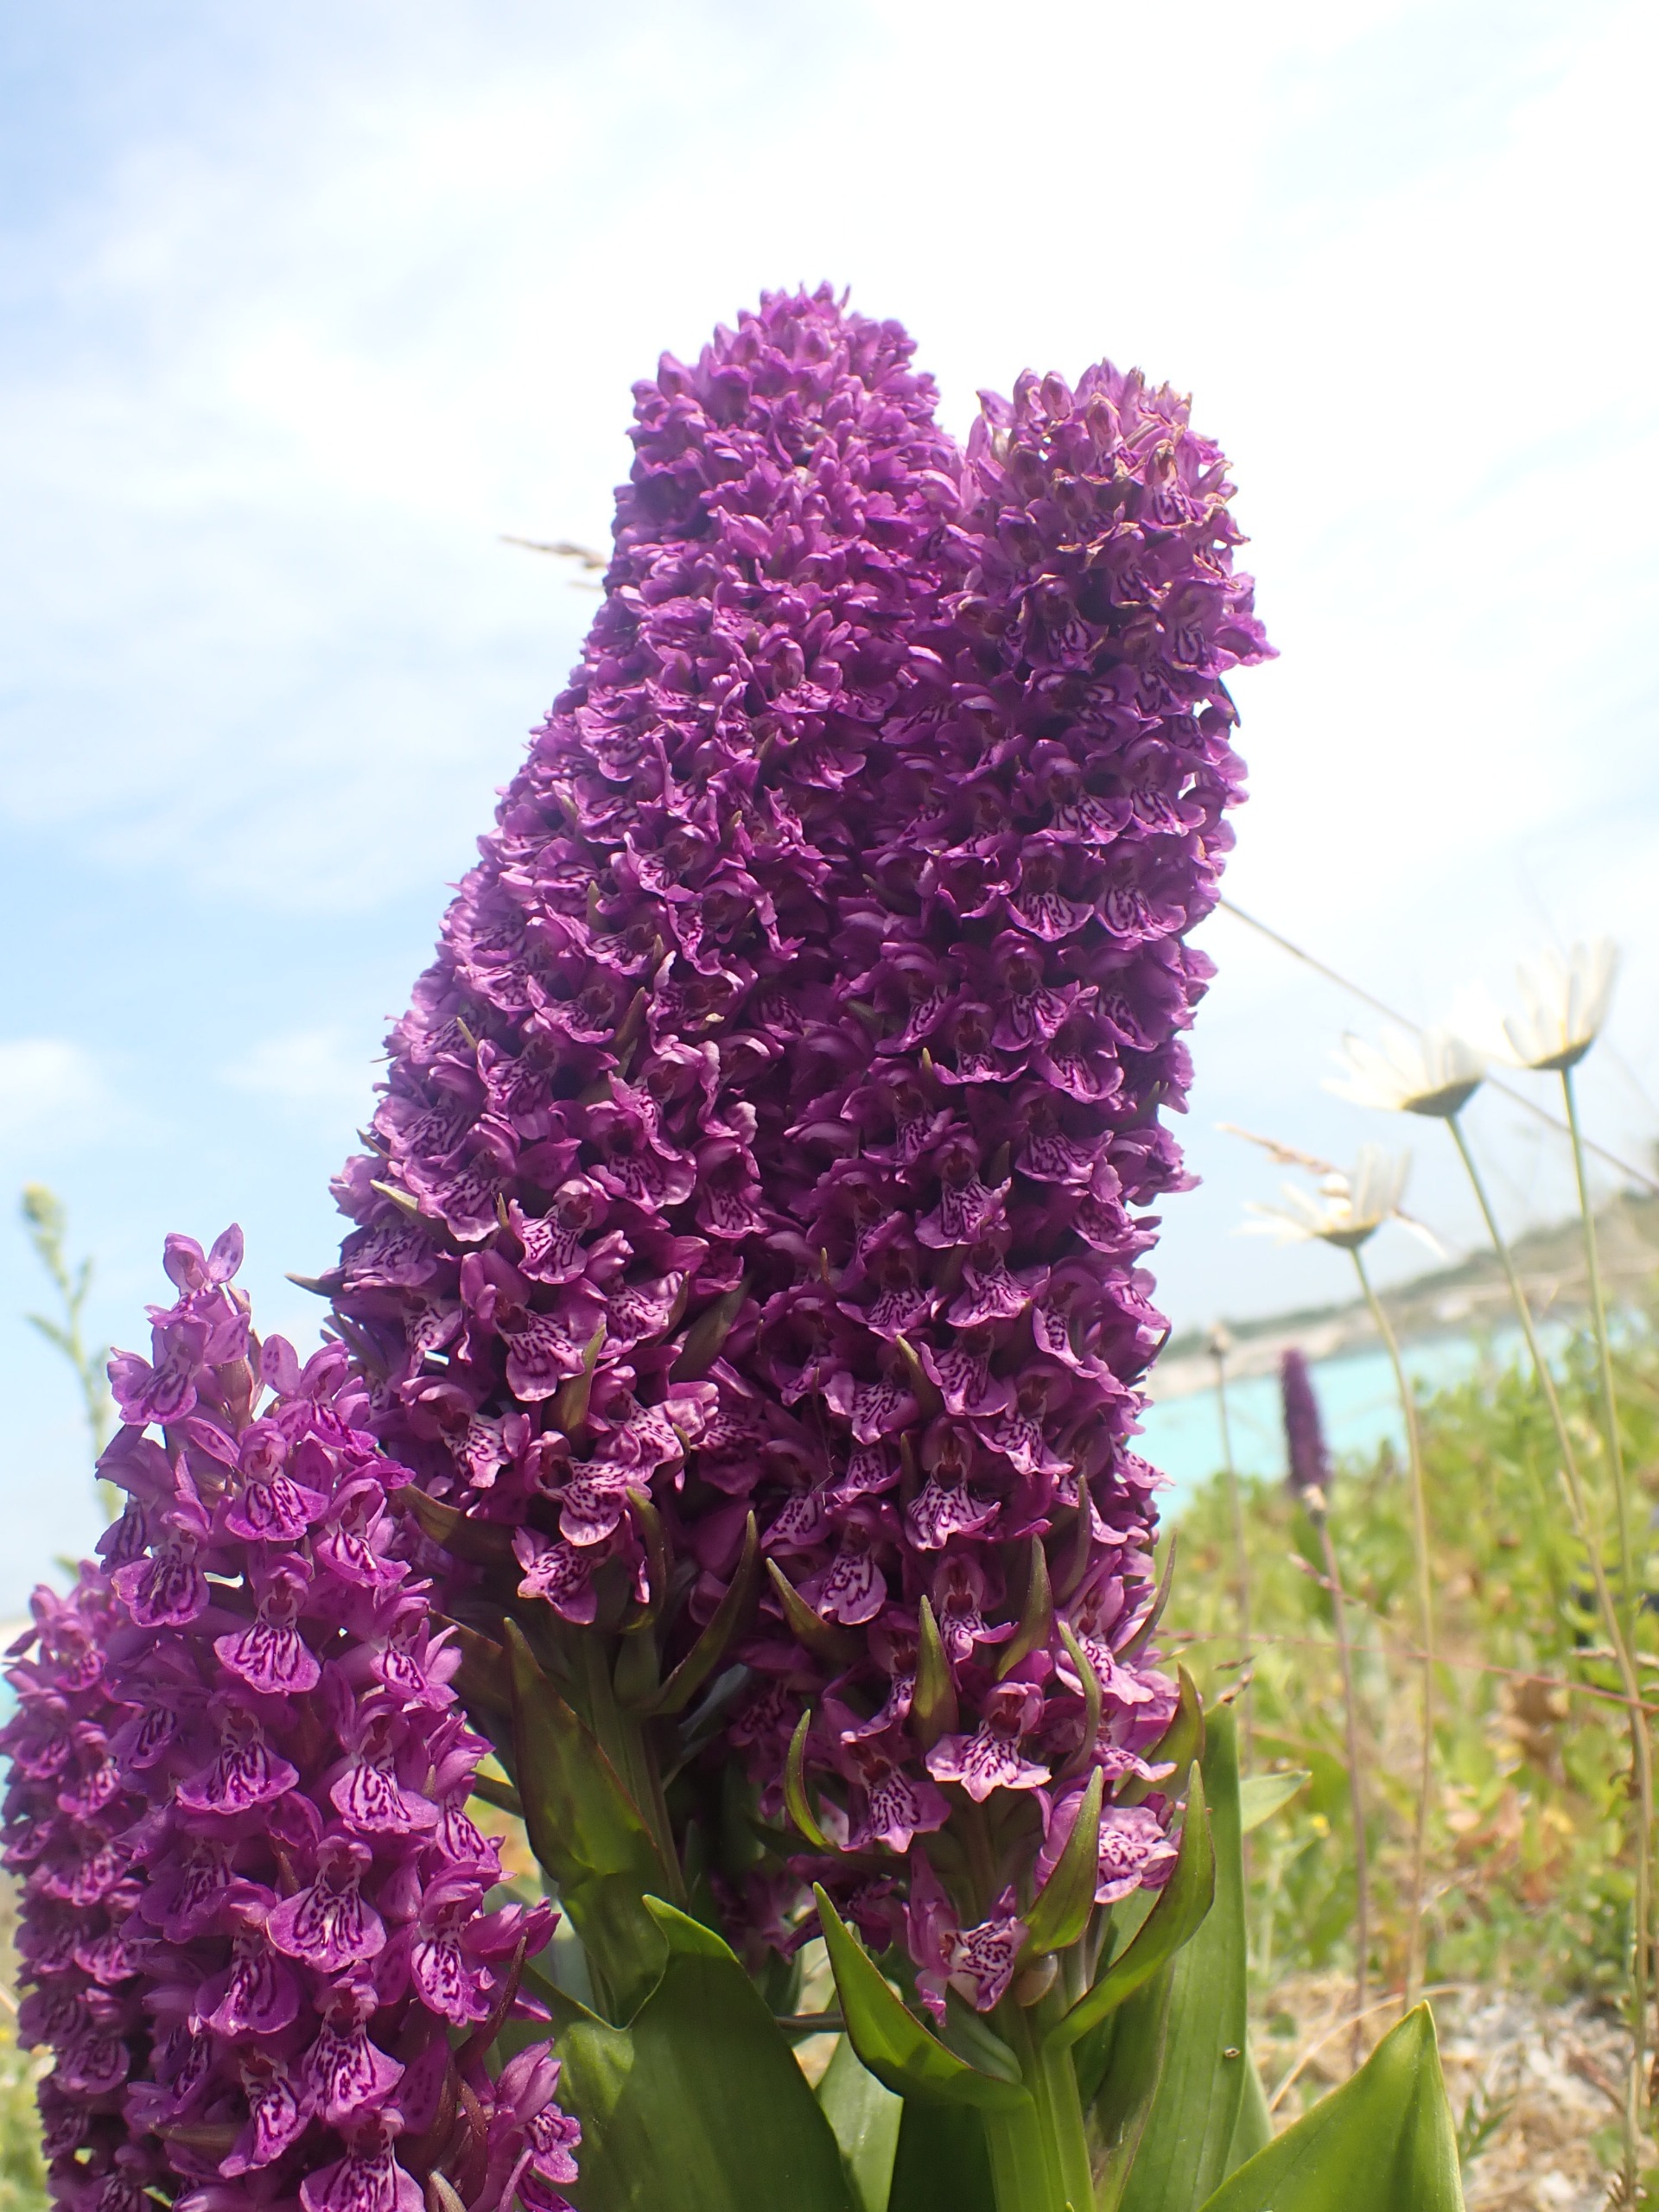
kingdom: Plantae
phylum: Tracheophyta
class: Liliopsida
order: Asparagales
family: Orchidaceae
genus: Dactylorhiza
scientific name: Dactylorhiza majalis
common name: Purpur-gøgeurt
